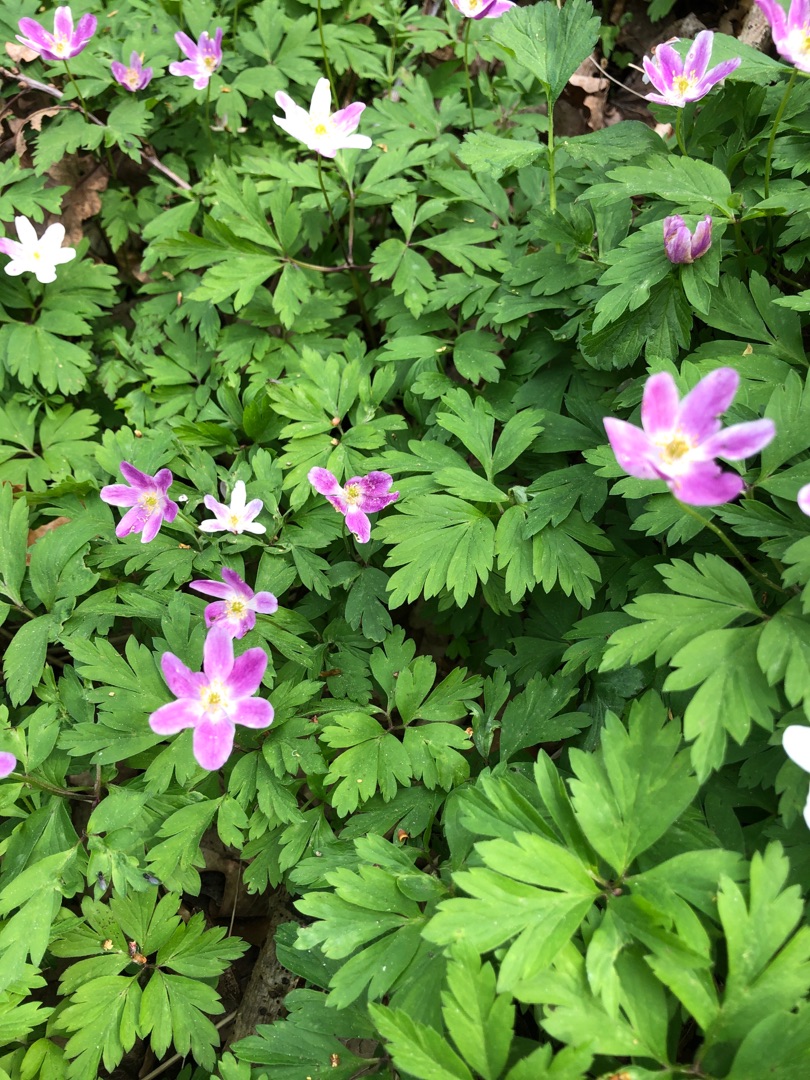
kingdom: Plantae
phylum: Tracheophyta
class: Magnoliopsida
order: Ranunculales
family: Ranunculaceae
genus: Anemone
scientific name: Anemone nemorosa
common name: Hvid anemone
